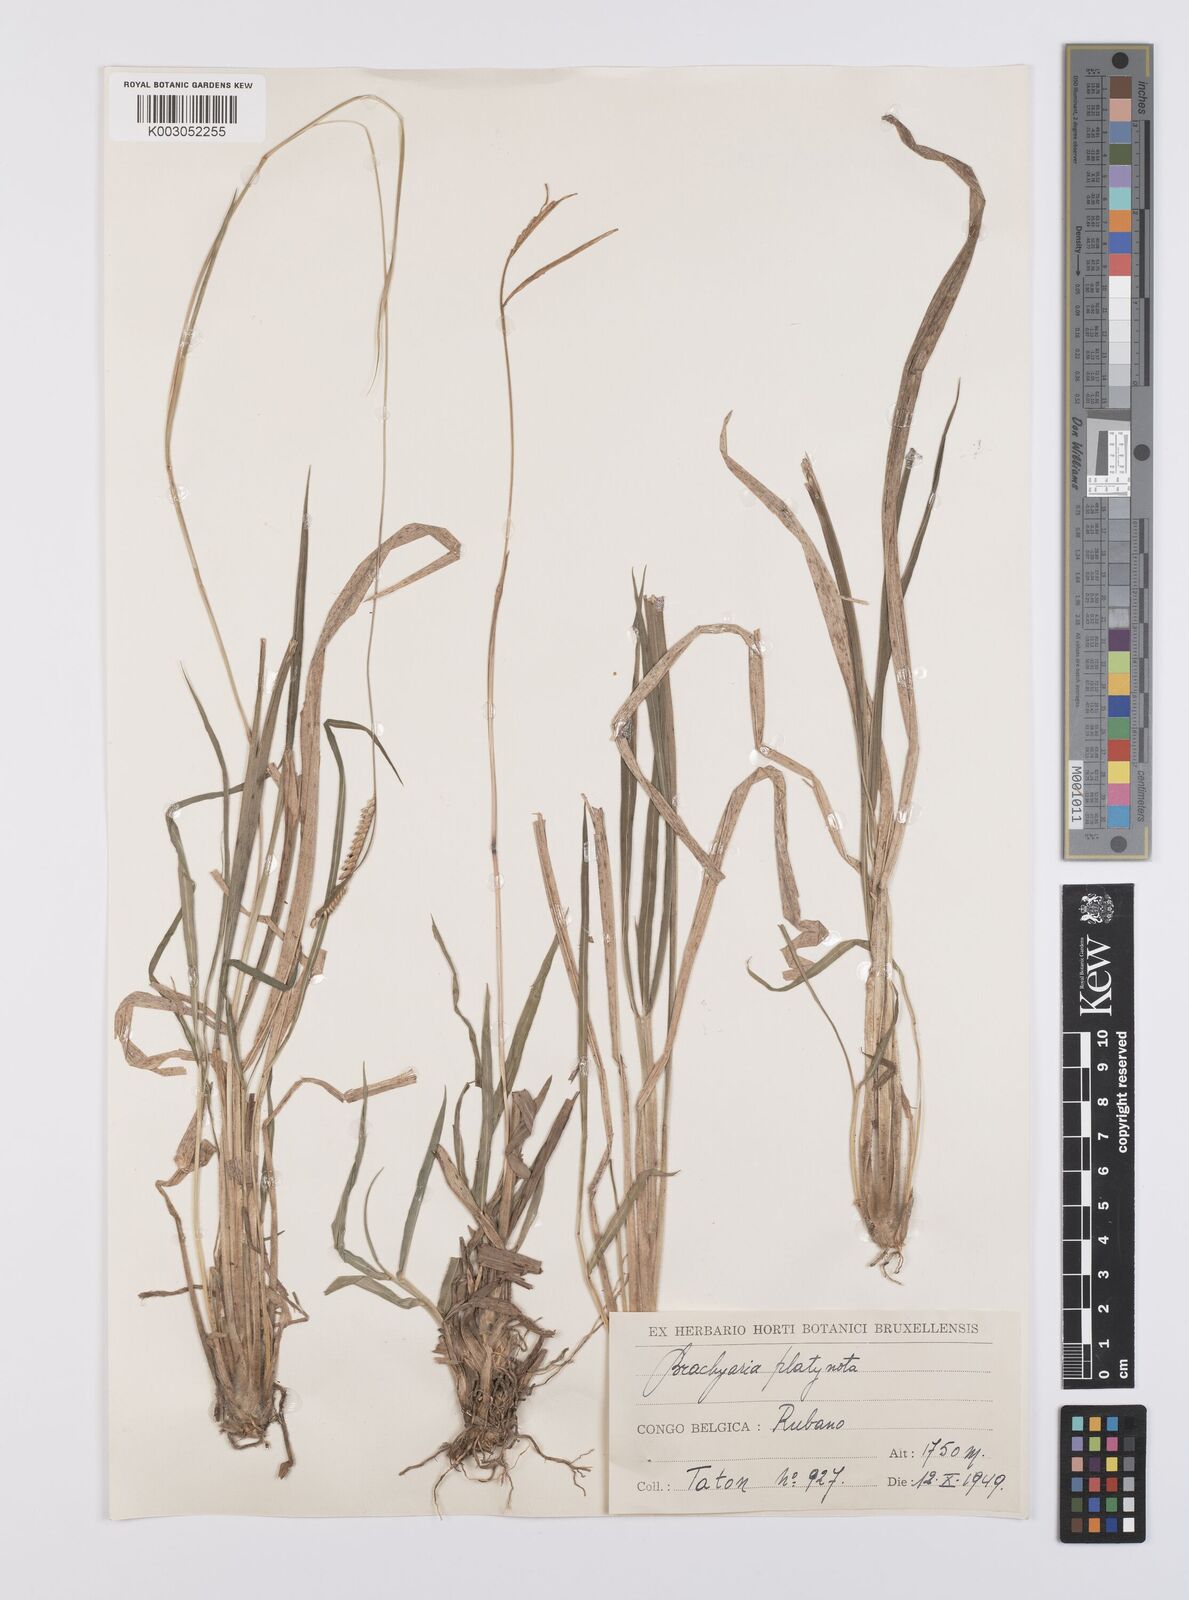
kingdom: Plantae
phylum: Tracheophyta
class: Liliopsida
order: Poales
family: Poaceae
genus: Urochloa
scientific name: Urochloa platynota
